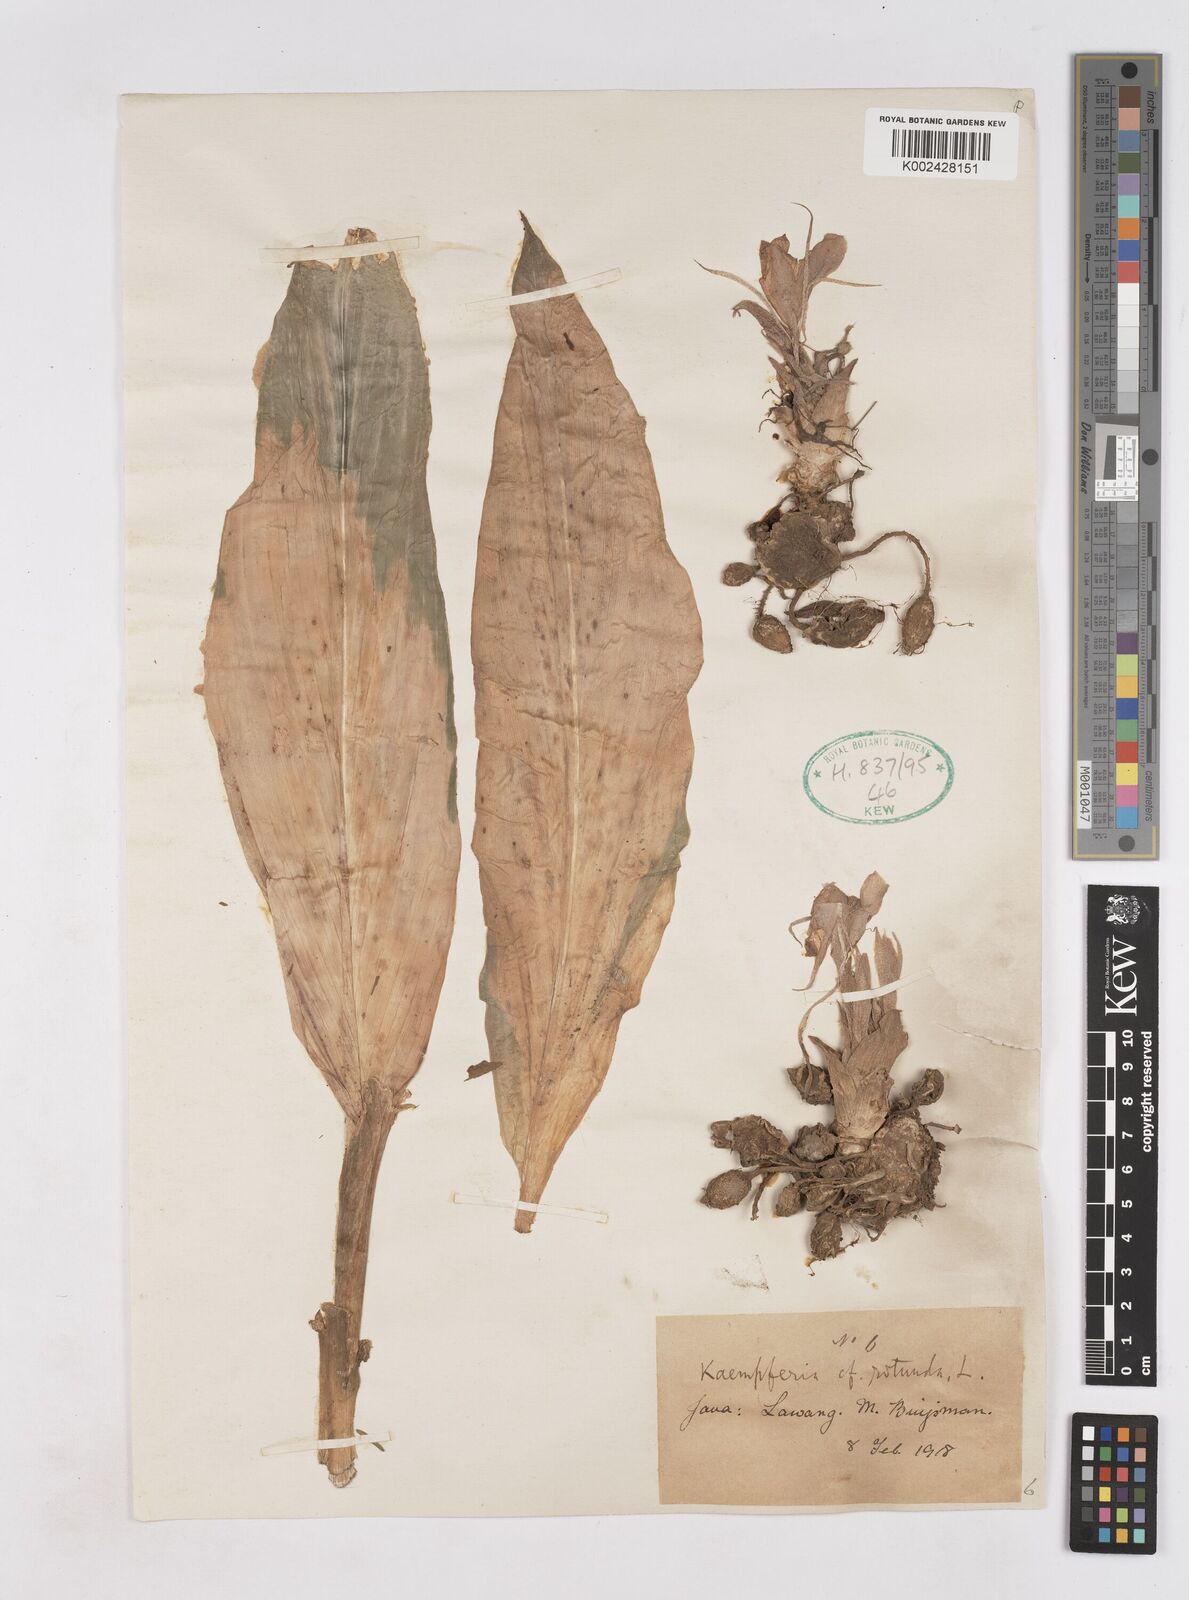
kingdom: Plantae
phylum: Tracheophyta
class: Liliopsida
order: Zingiberales
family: Zingiberaceae
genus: Kaempferia
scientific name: Kaempferia rotunda
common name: Tropical-crocus
